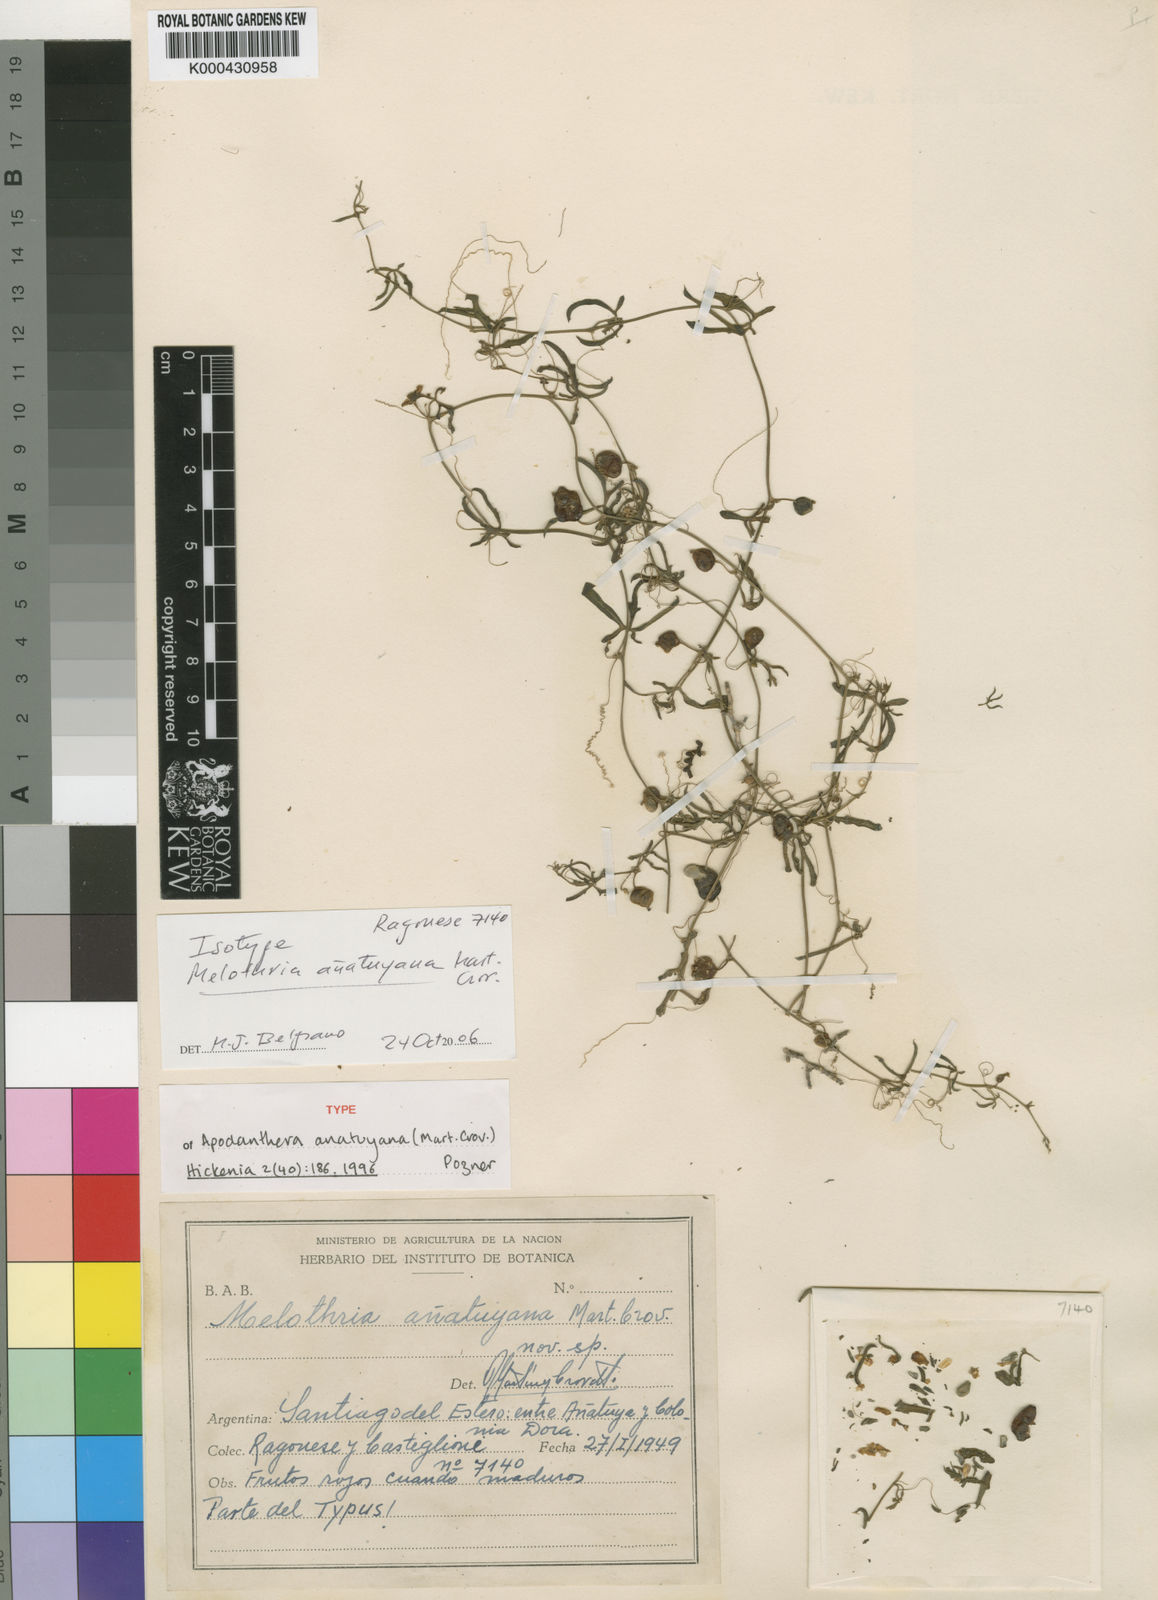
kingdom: Plantae
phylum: Tracheophyta
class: Magnoliopsida
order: Cucurbitales
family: Cucurbitaceae
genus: Apodanthera
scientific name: Apodanthera anatuyana
